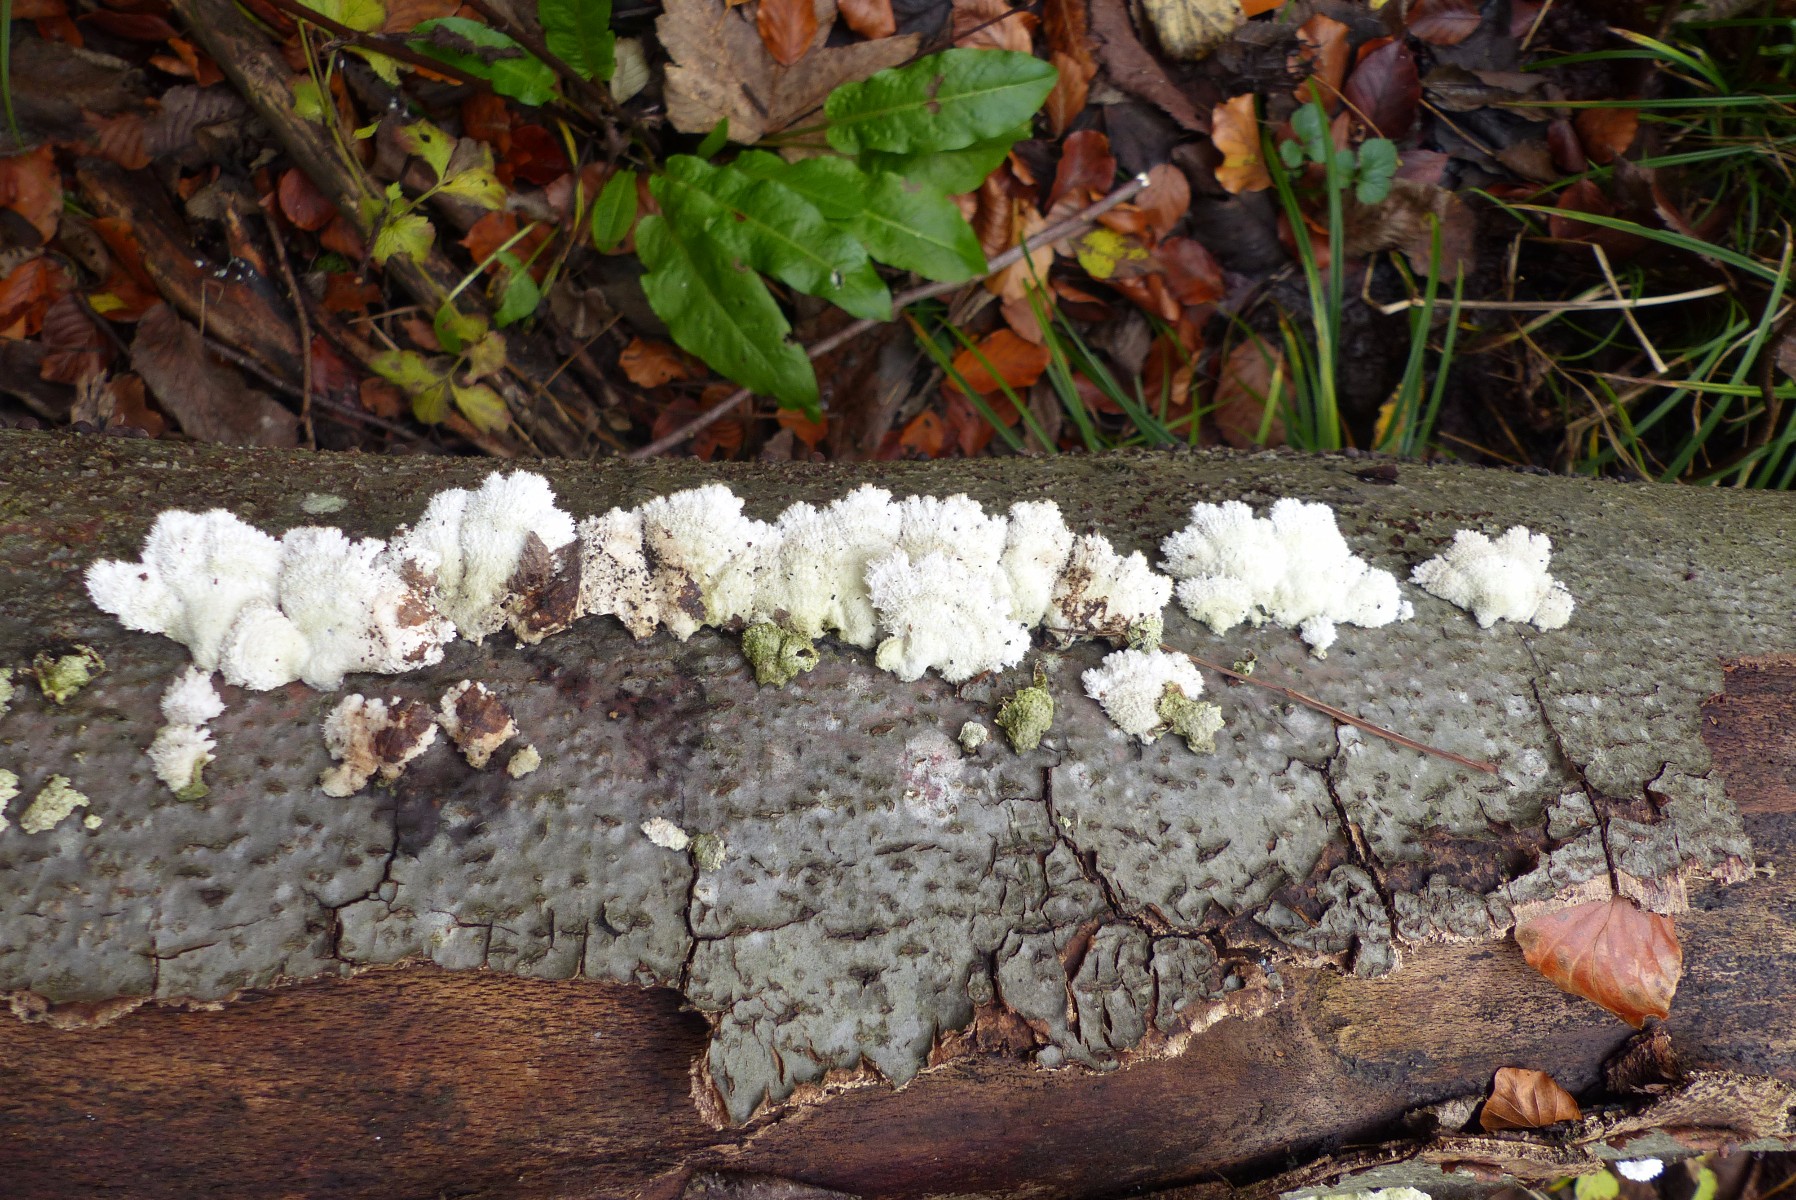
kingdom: Fungi
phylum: Basidiomycota
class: Agaricomycetes
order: Agaricales
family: Schizophyllaceae
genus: Schizophyllum
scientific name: Schizophyllum commune
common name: kløvblad
